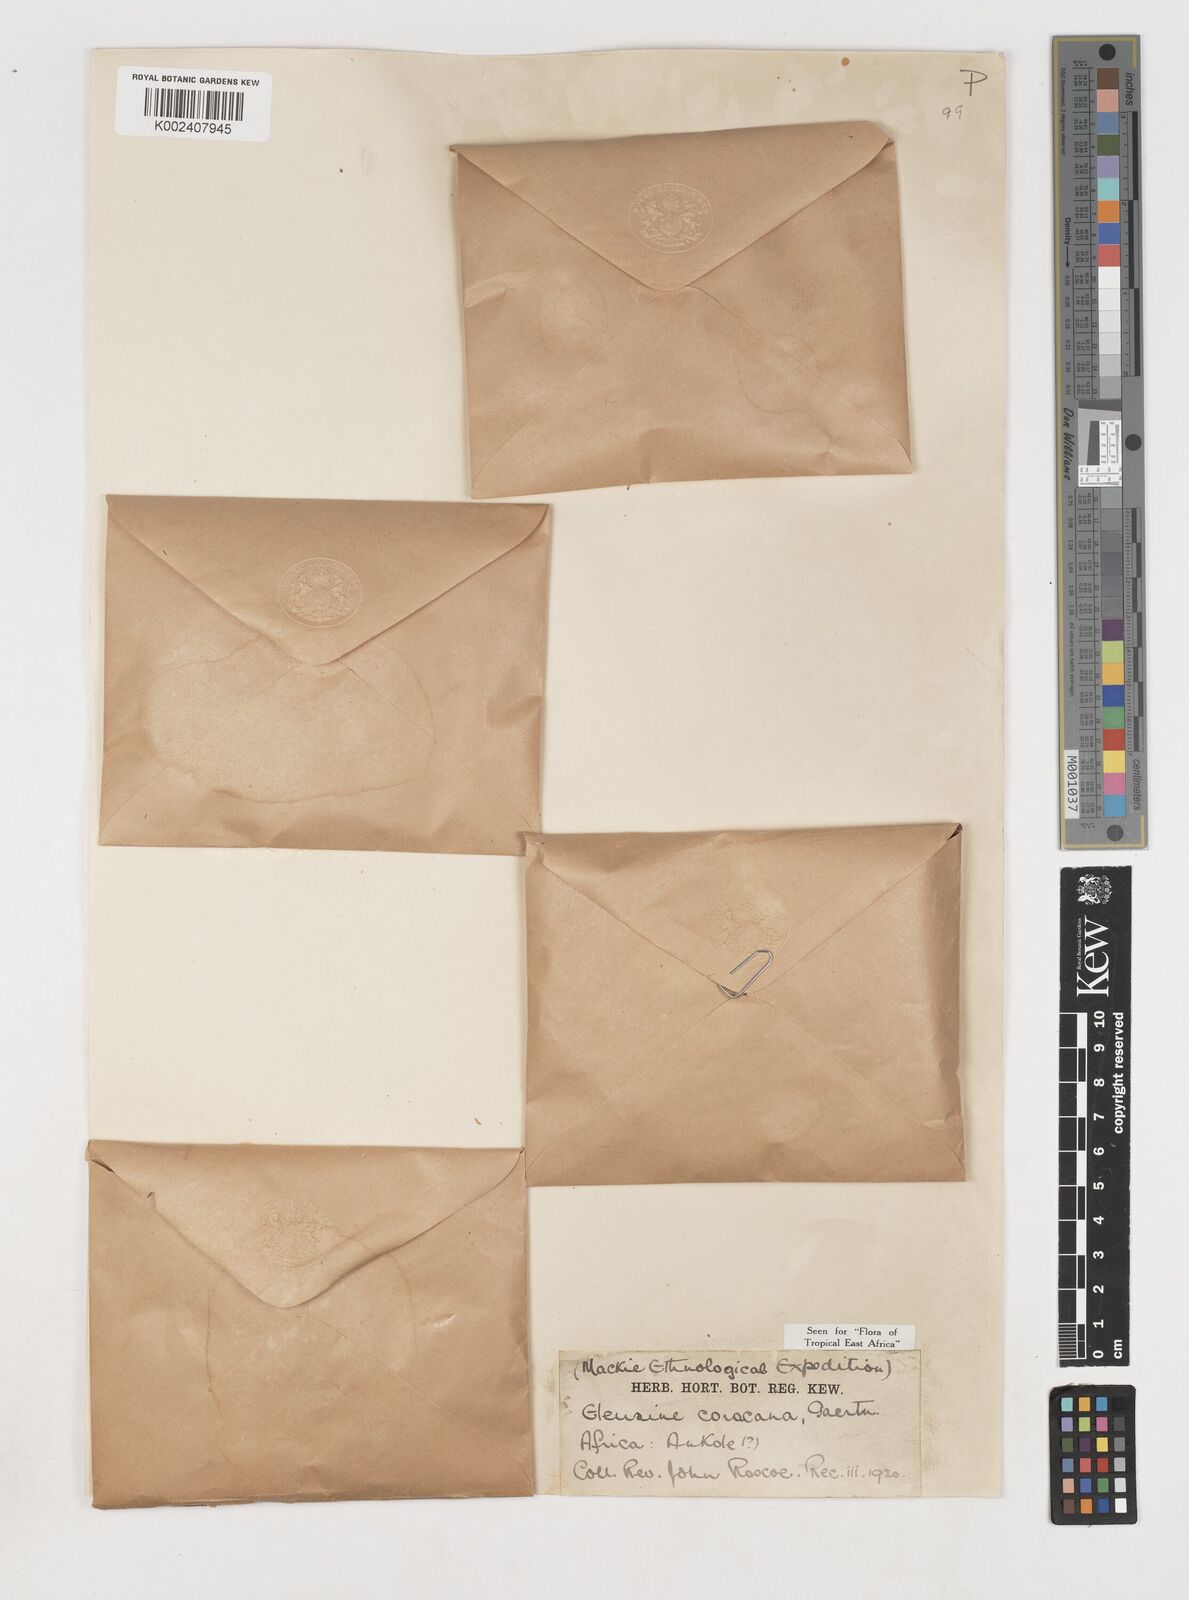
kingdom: Plantae
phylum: Tracheophyta
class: Liliopsida
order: Poales
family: Poaceae
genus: Eleusine
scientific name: Eleusine coracana
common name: Finger millet
